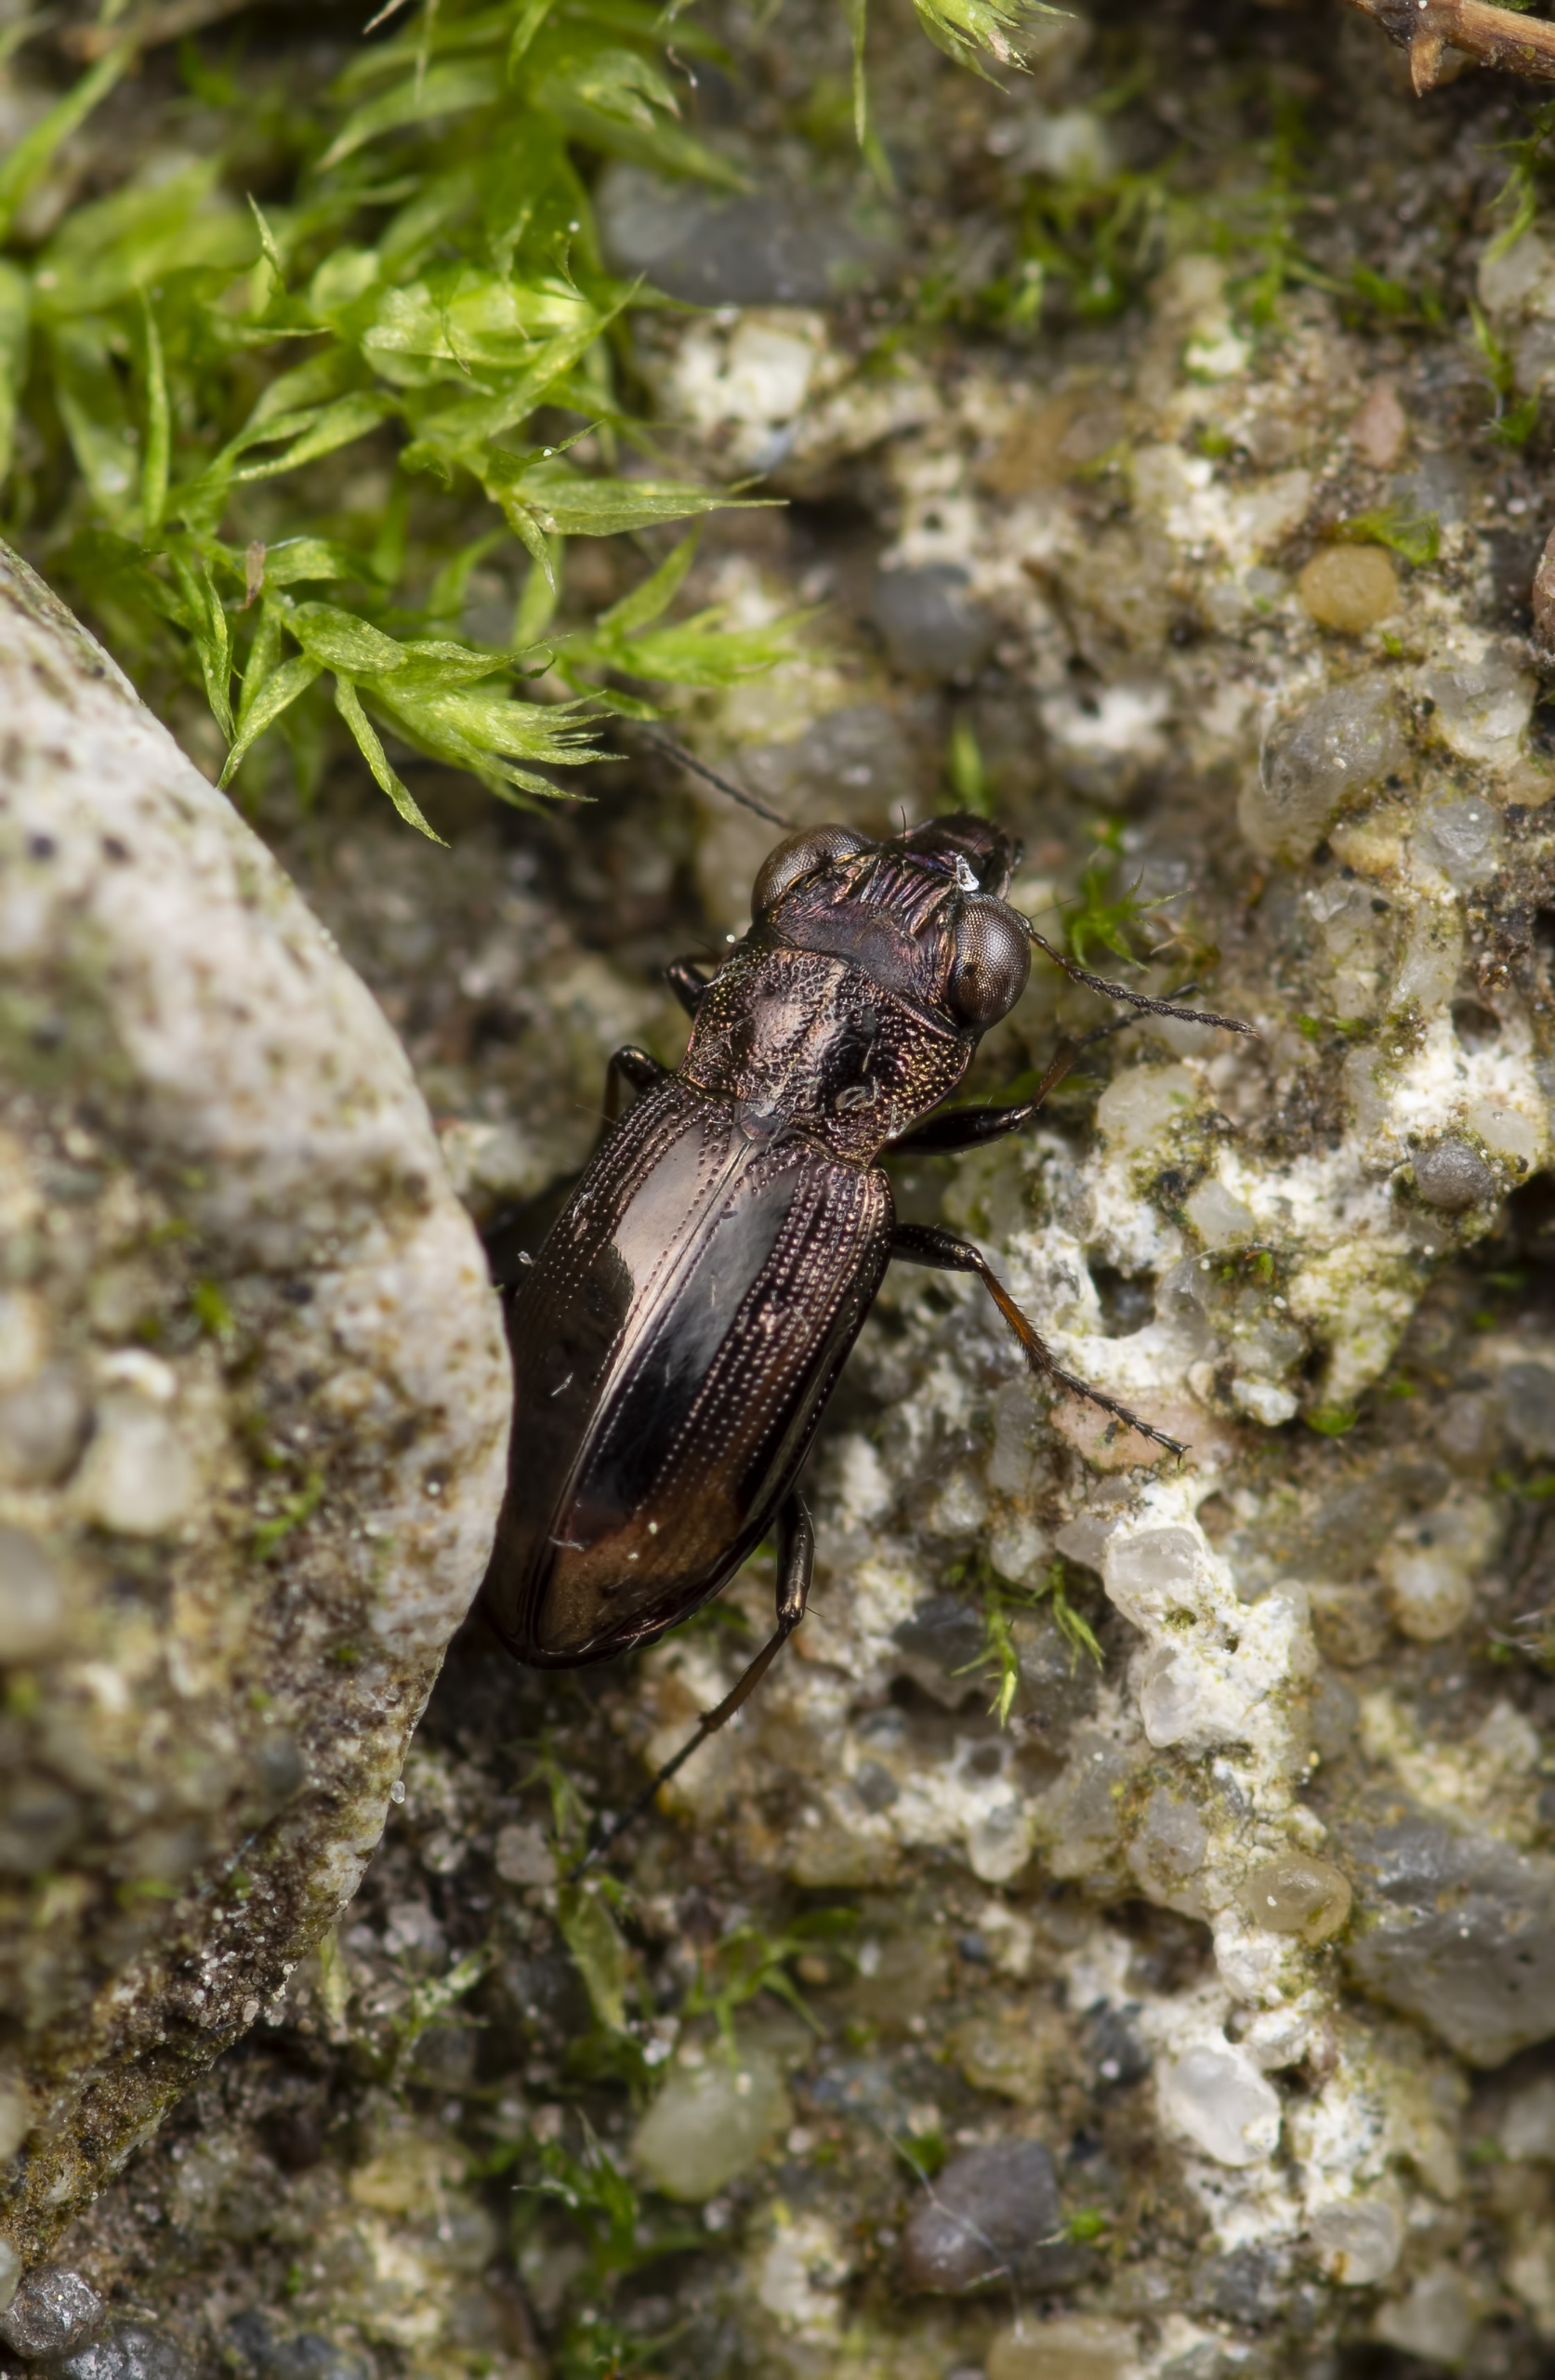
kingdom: Animalia
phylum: Arthropoda
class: Insecta
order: Coleoptera
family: Carabidae
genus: Notiophilus
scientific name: Notiophilus biguttatus
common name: Toplettet spejlløber
